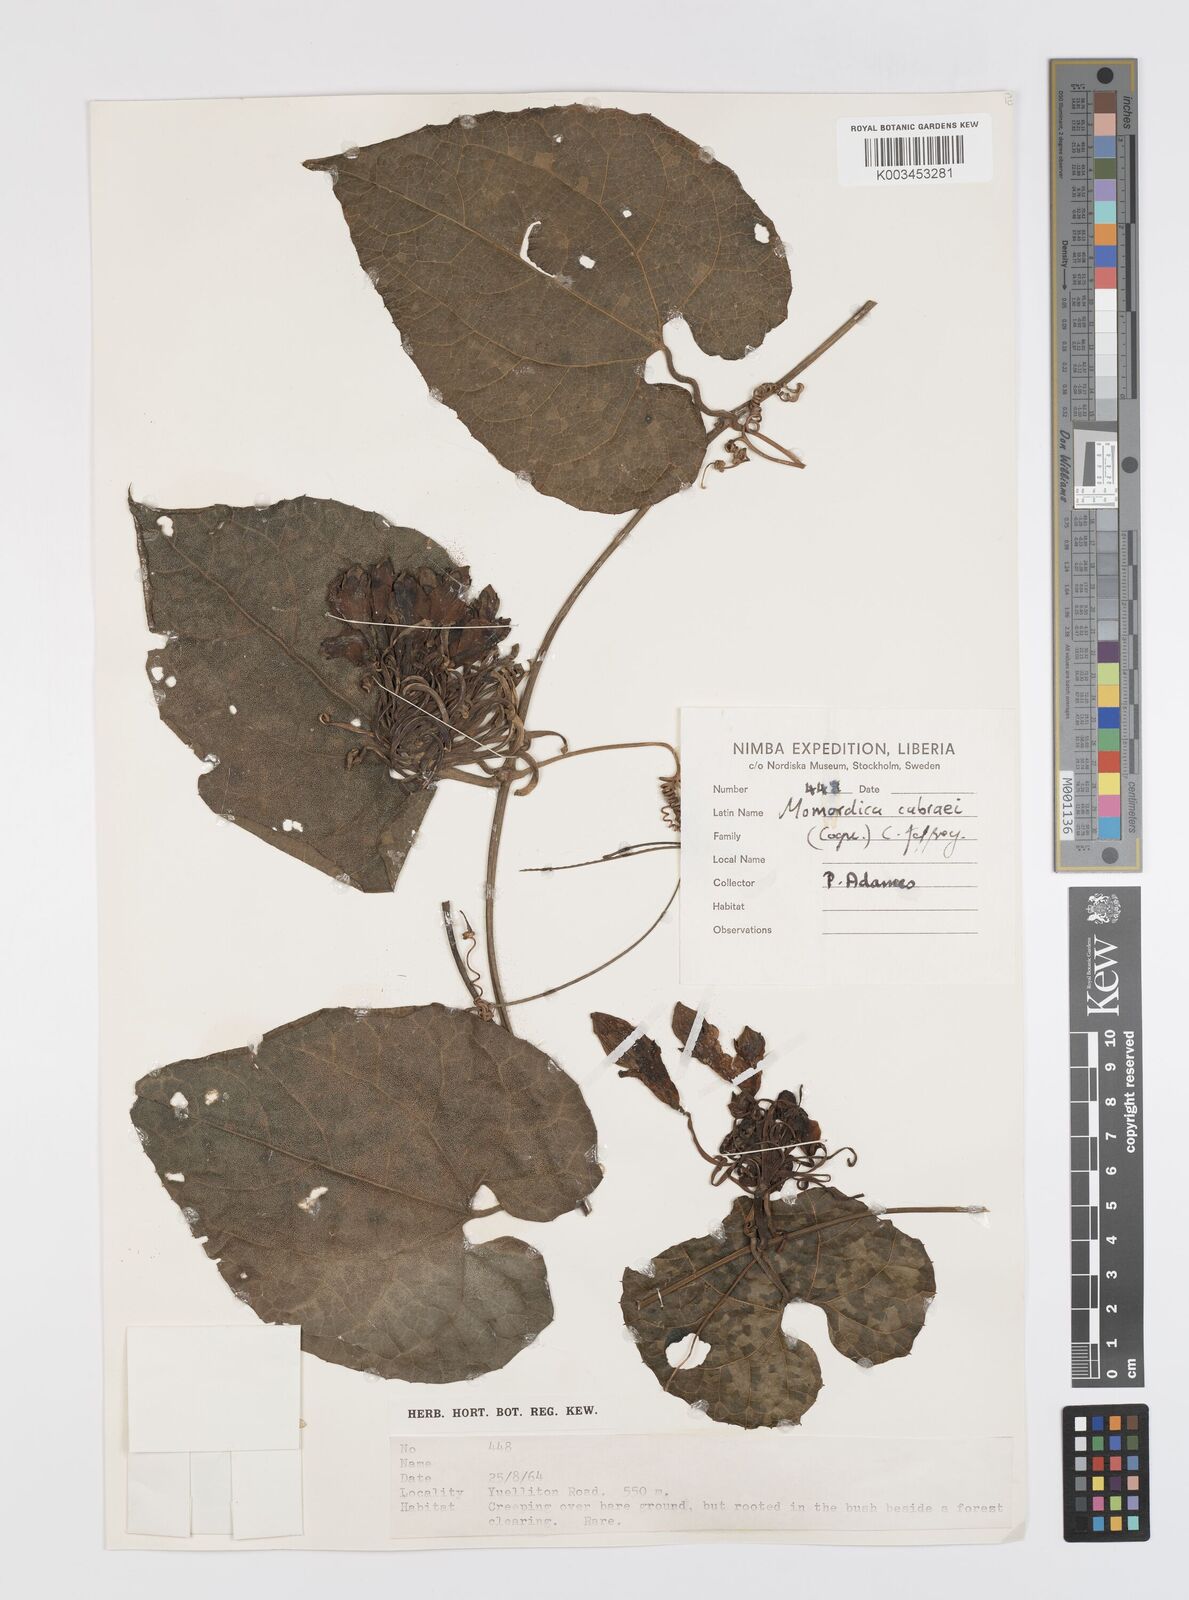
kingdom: Plantae
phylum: Tracheophyta
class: Magnoliopsida
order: Cucurbitales
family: Cucurbitaceae
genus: Momordica
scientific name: Momordica cabrae
